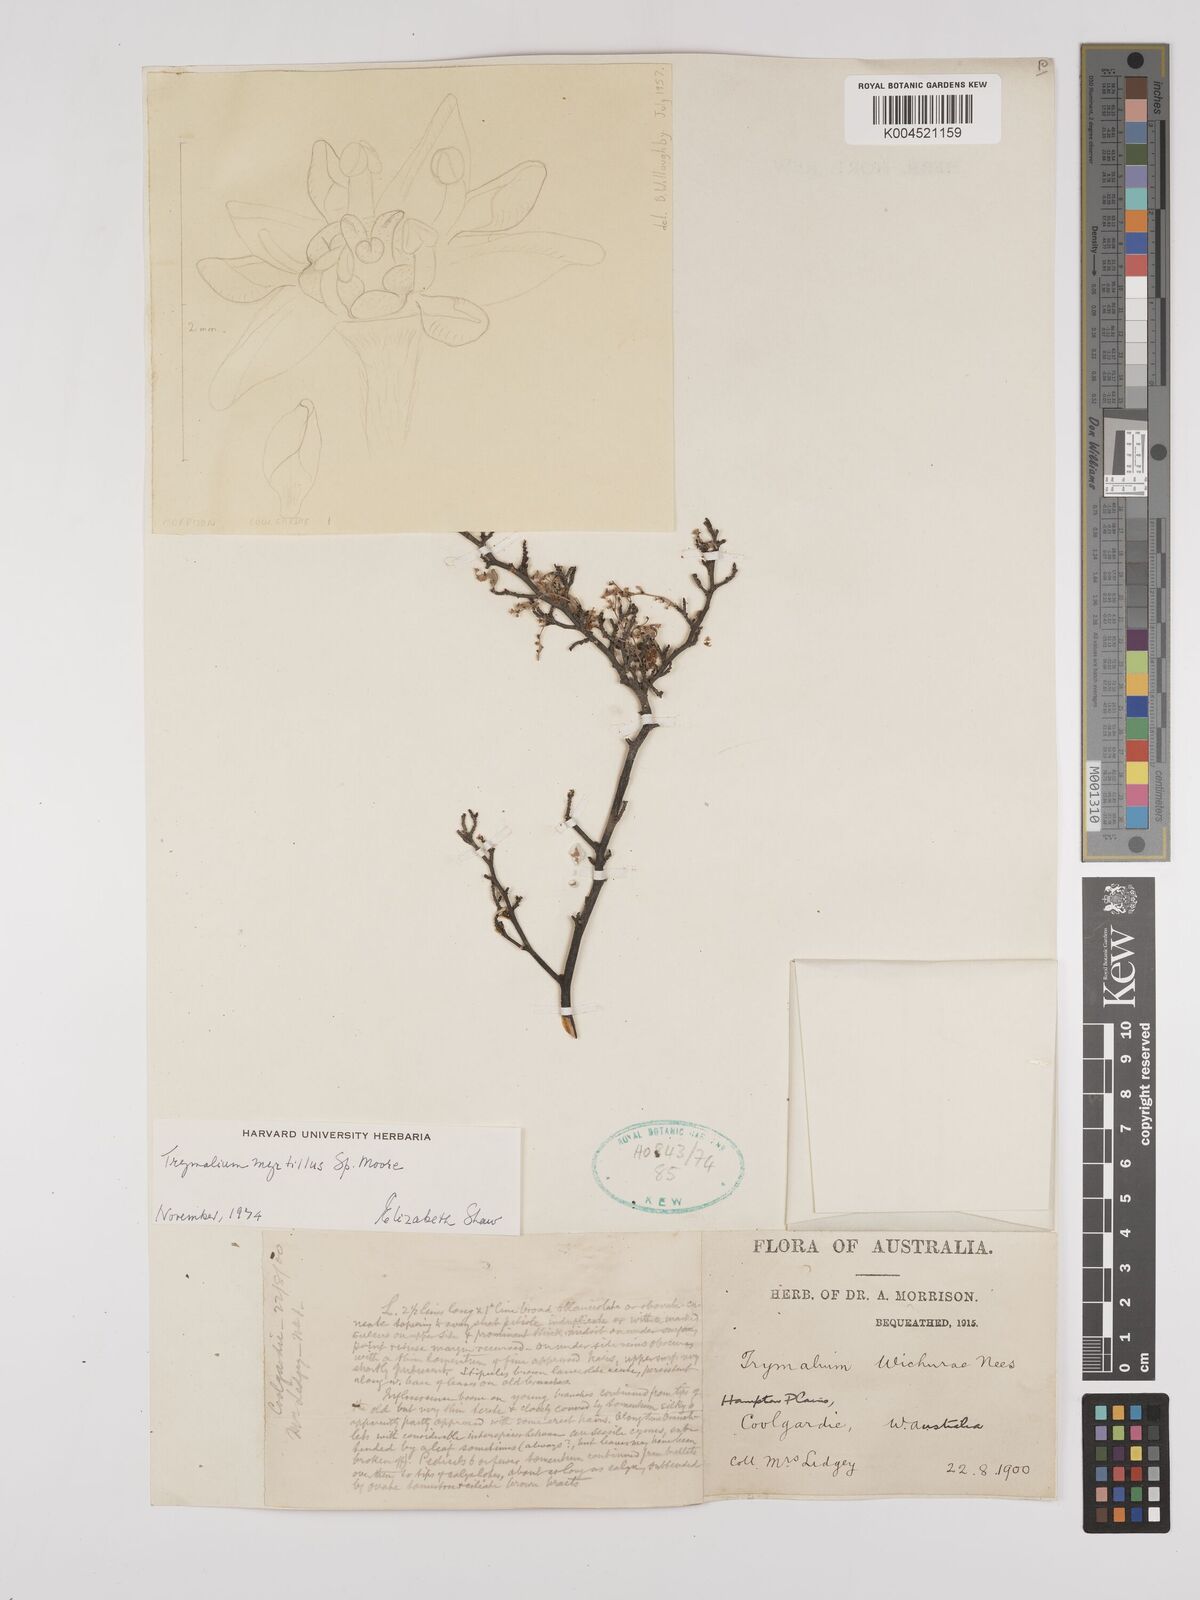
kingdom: Plantae
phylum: Tracheophyta
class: Magnoliopsida
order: Rosales
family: Rhamnaceae
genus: Trymalium
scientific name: Trymalium myrtillus
